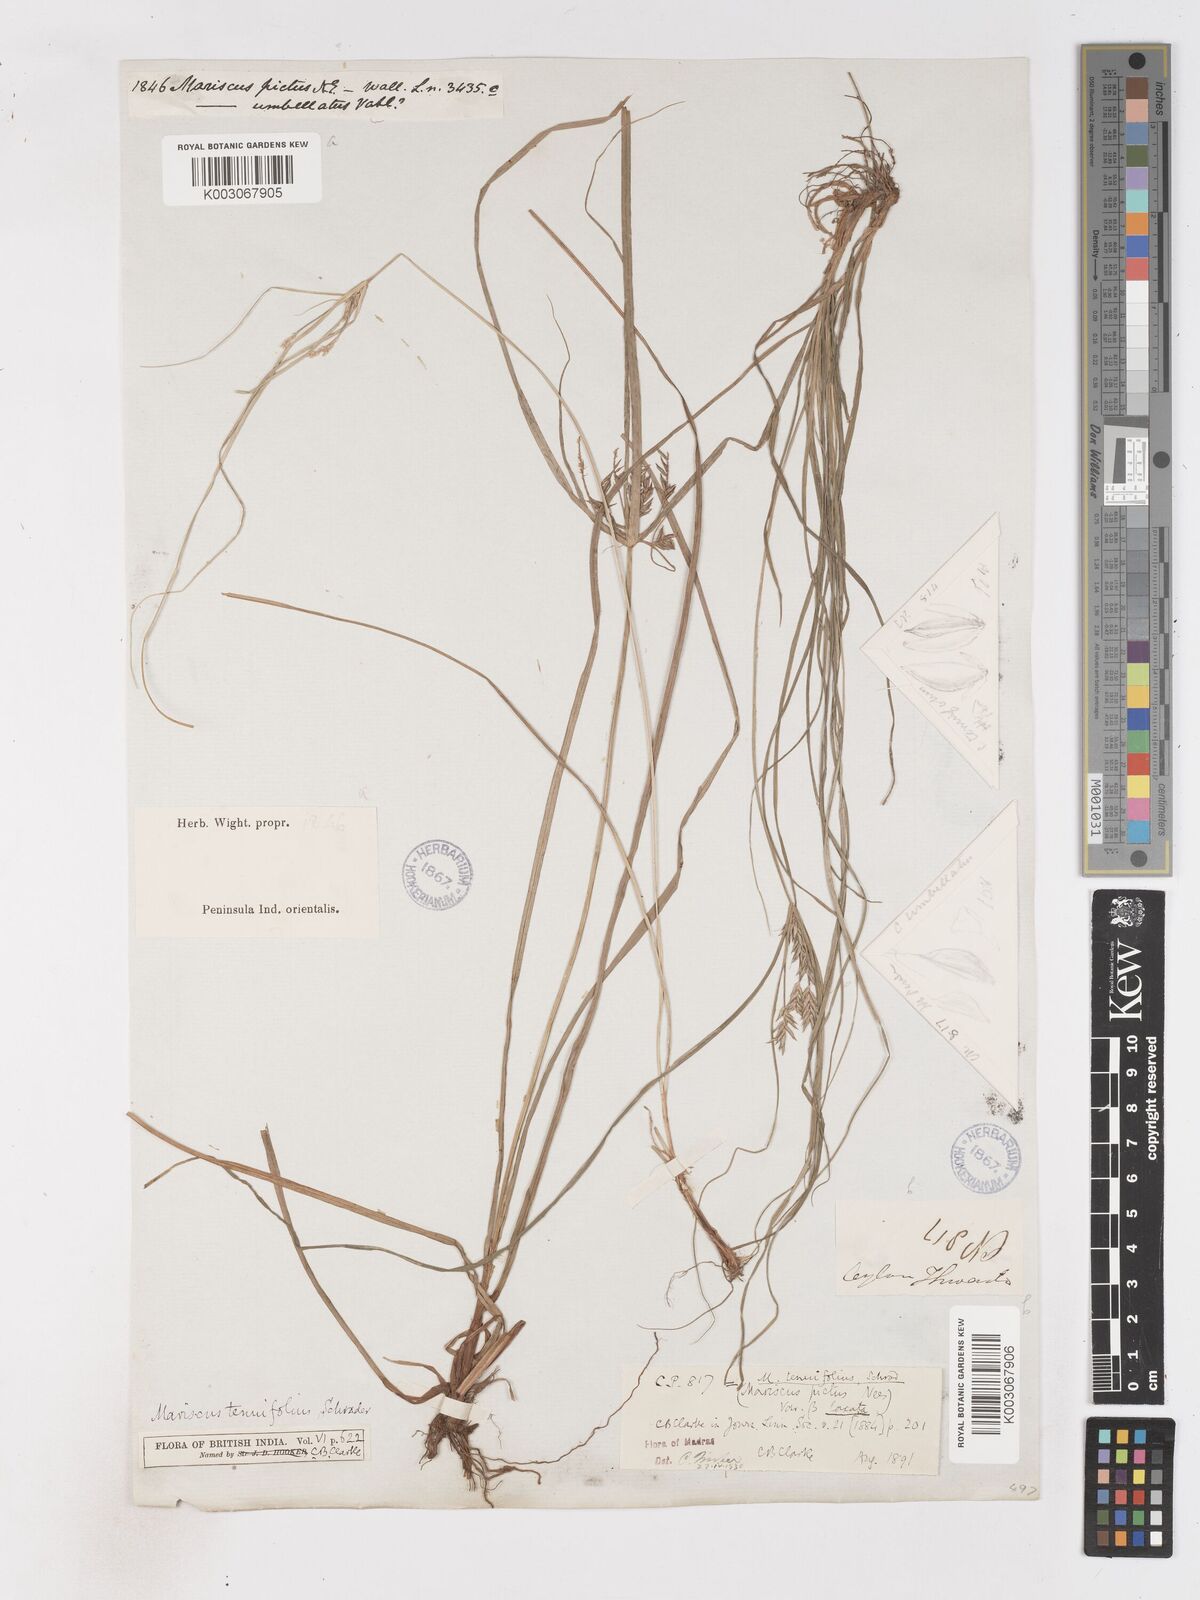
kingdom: Plantae
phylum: Tracheophyta
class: Liliopsida
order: Poales
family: Cyperaceae
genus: Cyperus
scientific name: Cyperus cyperinus
